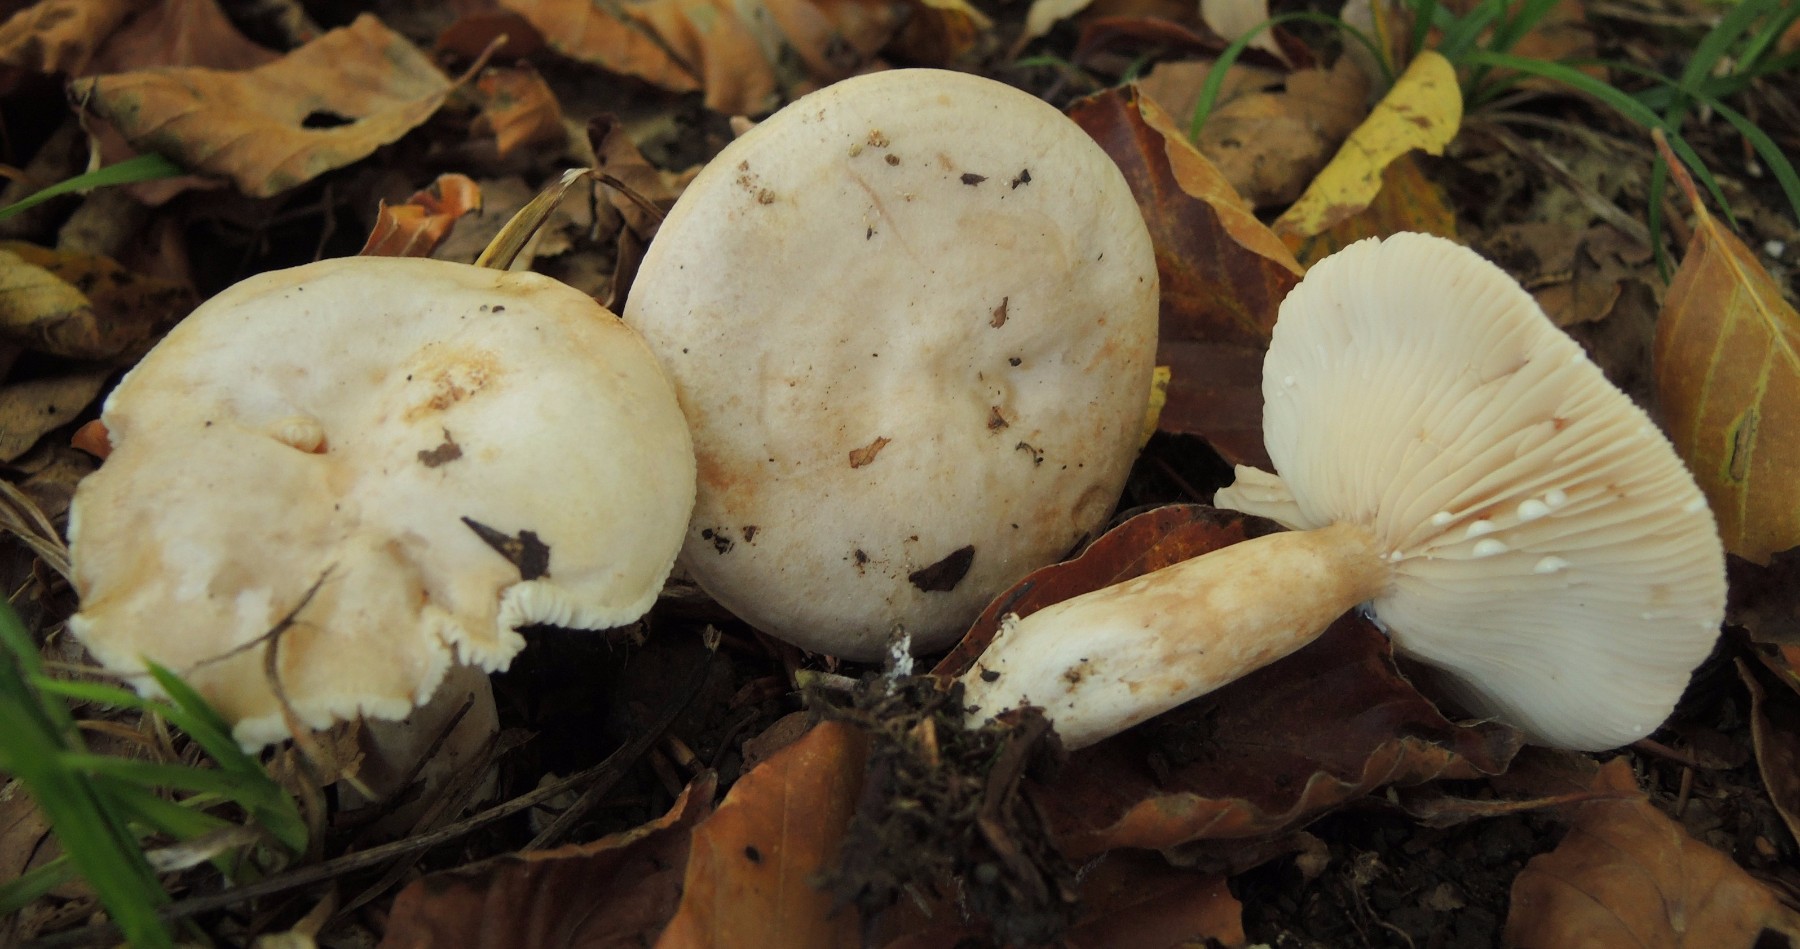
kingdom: Fungi
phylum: Basidiomycota
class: Agaricomycetes
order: Russulales
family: Russulaceae
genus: Lactarius
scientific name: Lactarius pallidus
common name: bleg mælkehat
